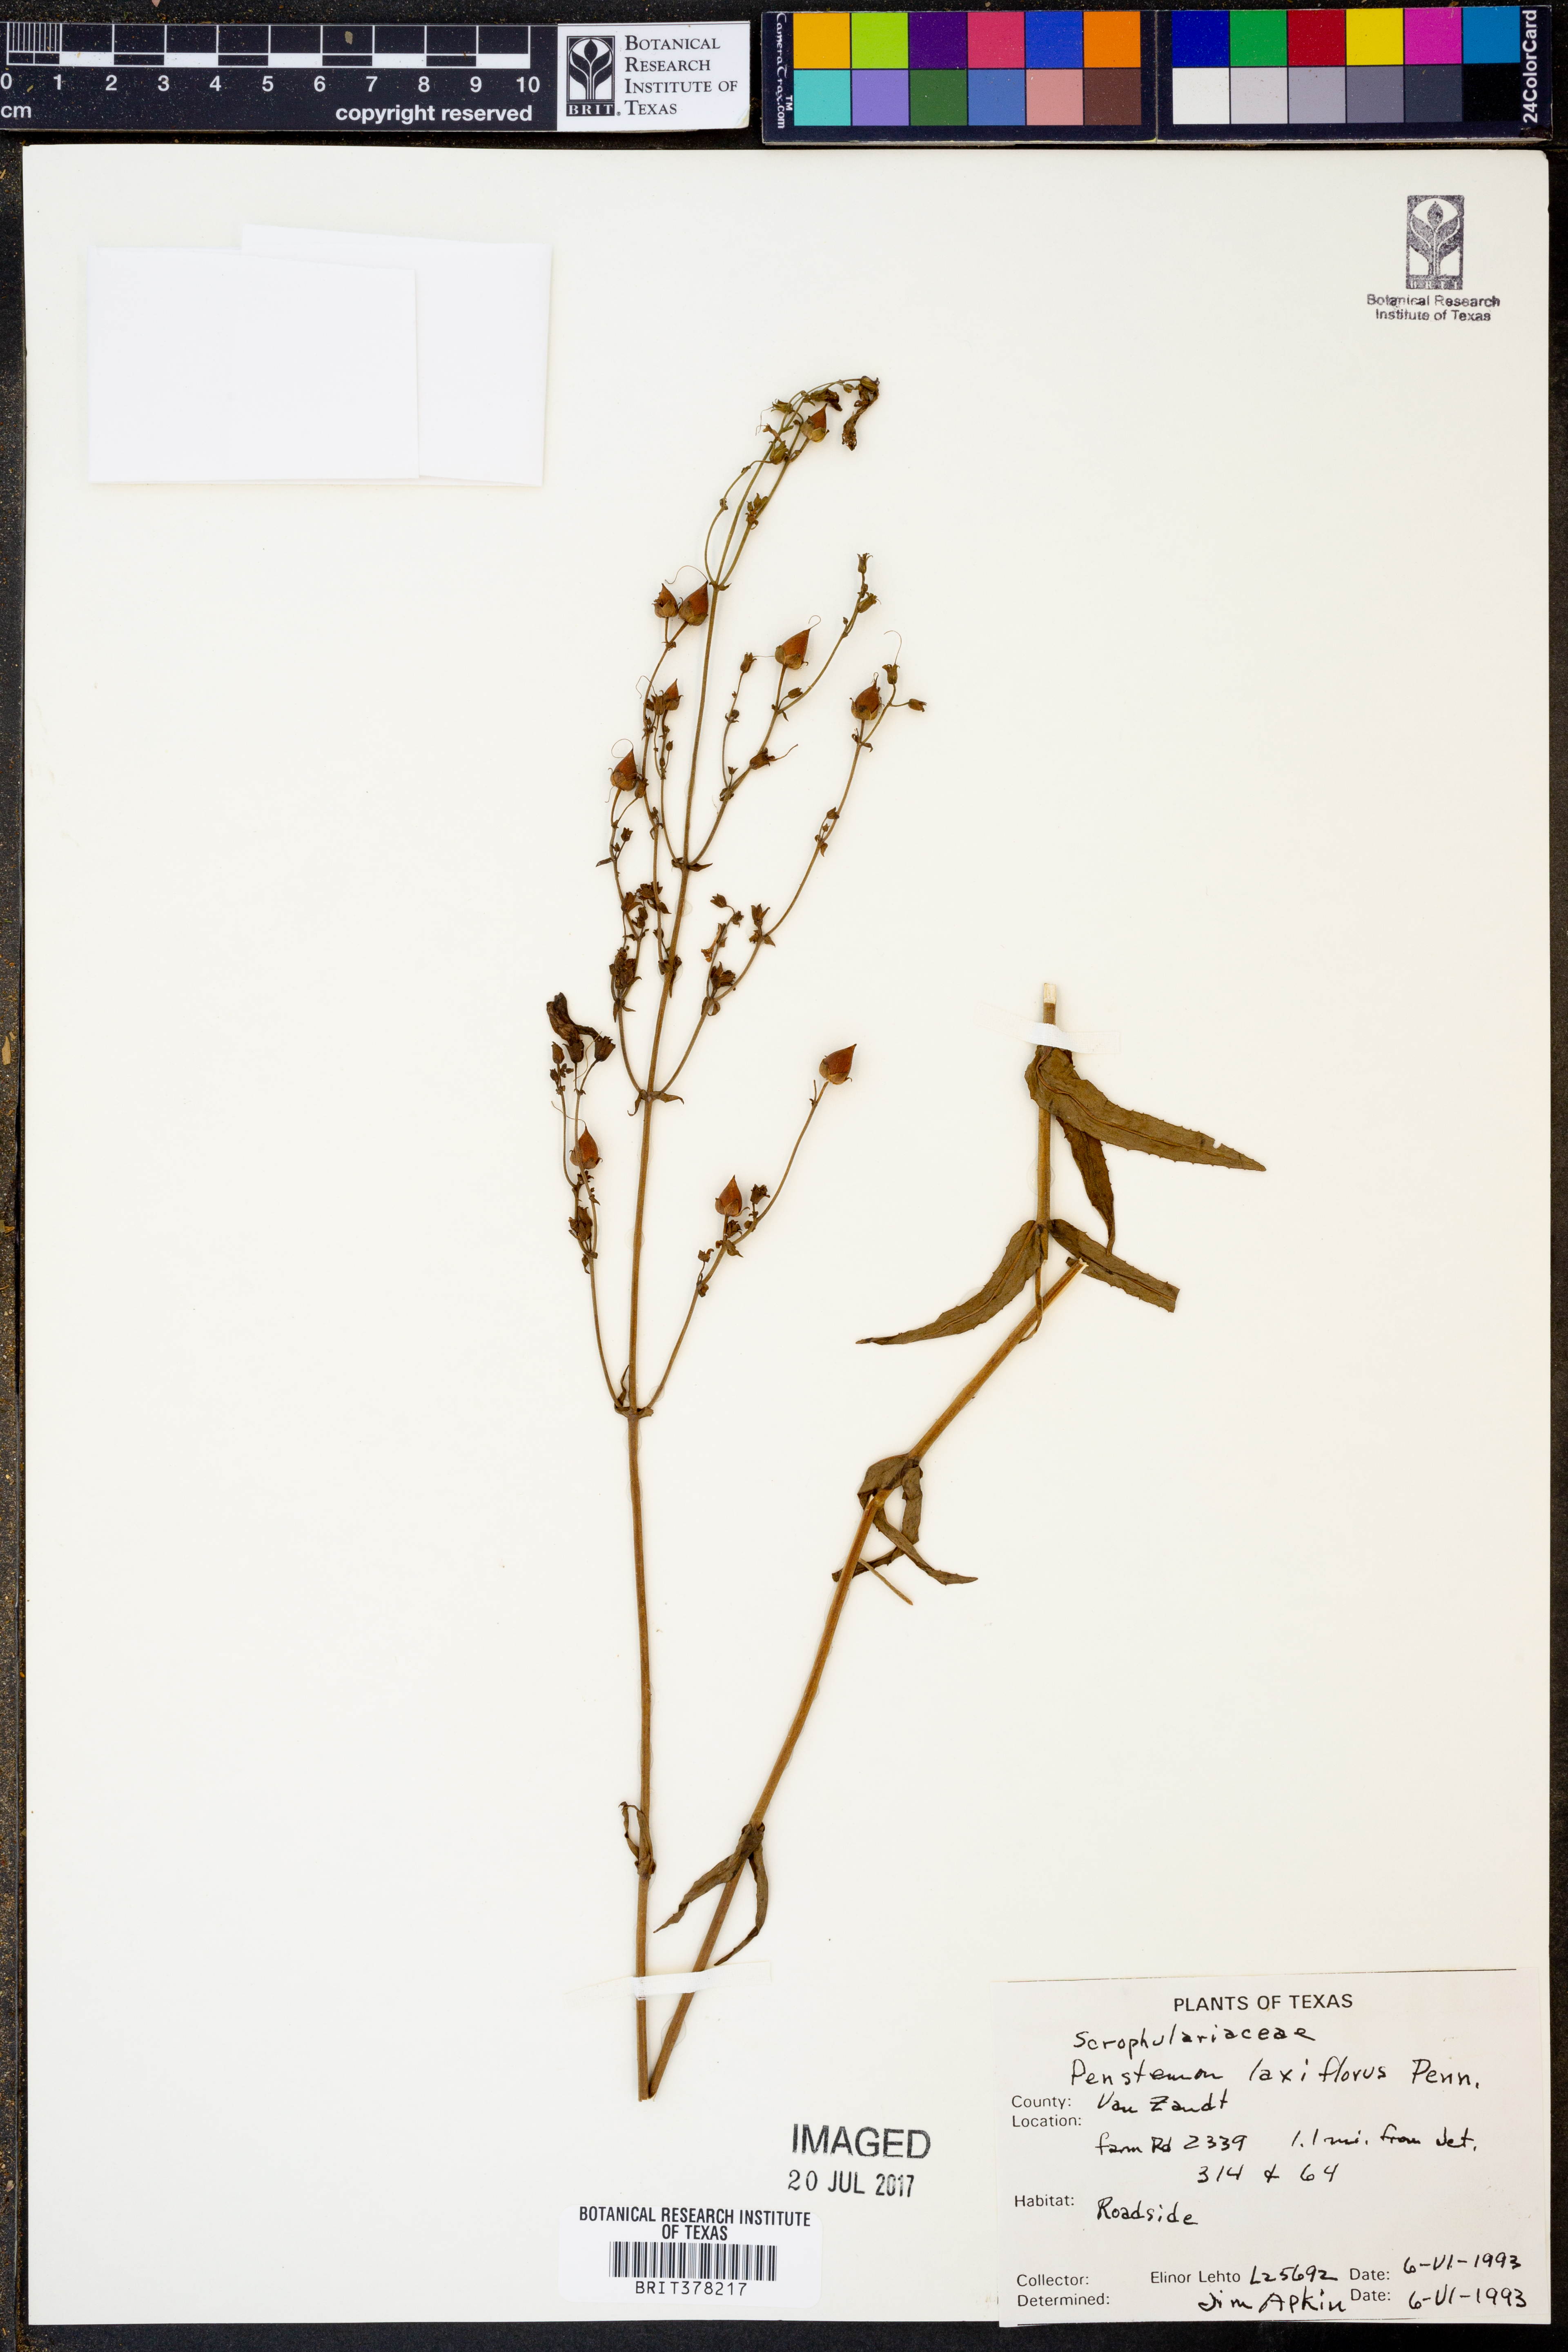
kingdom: Plantae
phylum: Tracheophyta
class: Magnoliopsida
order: Lamiales
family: Plantaginaceae
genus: Penstemon
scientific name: Penstemon laxiflorus
